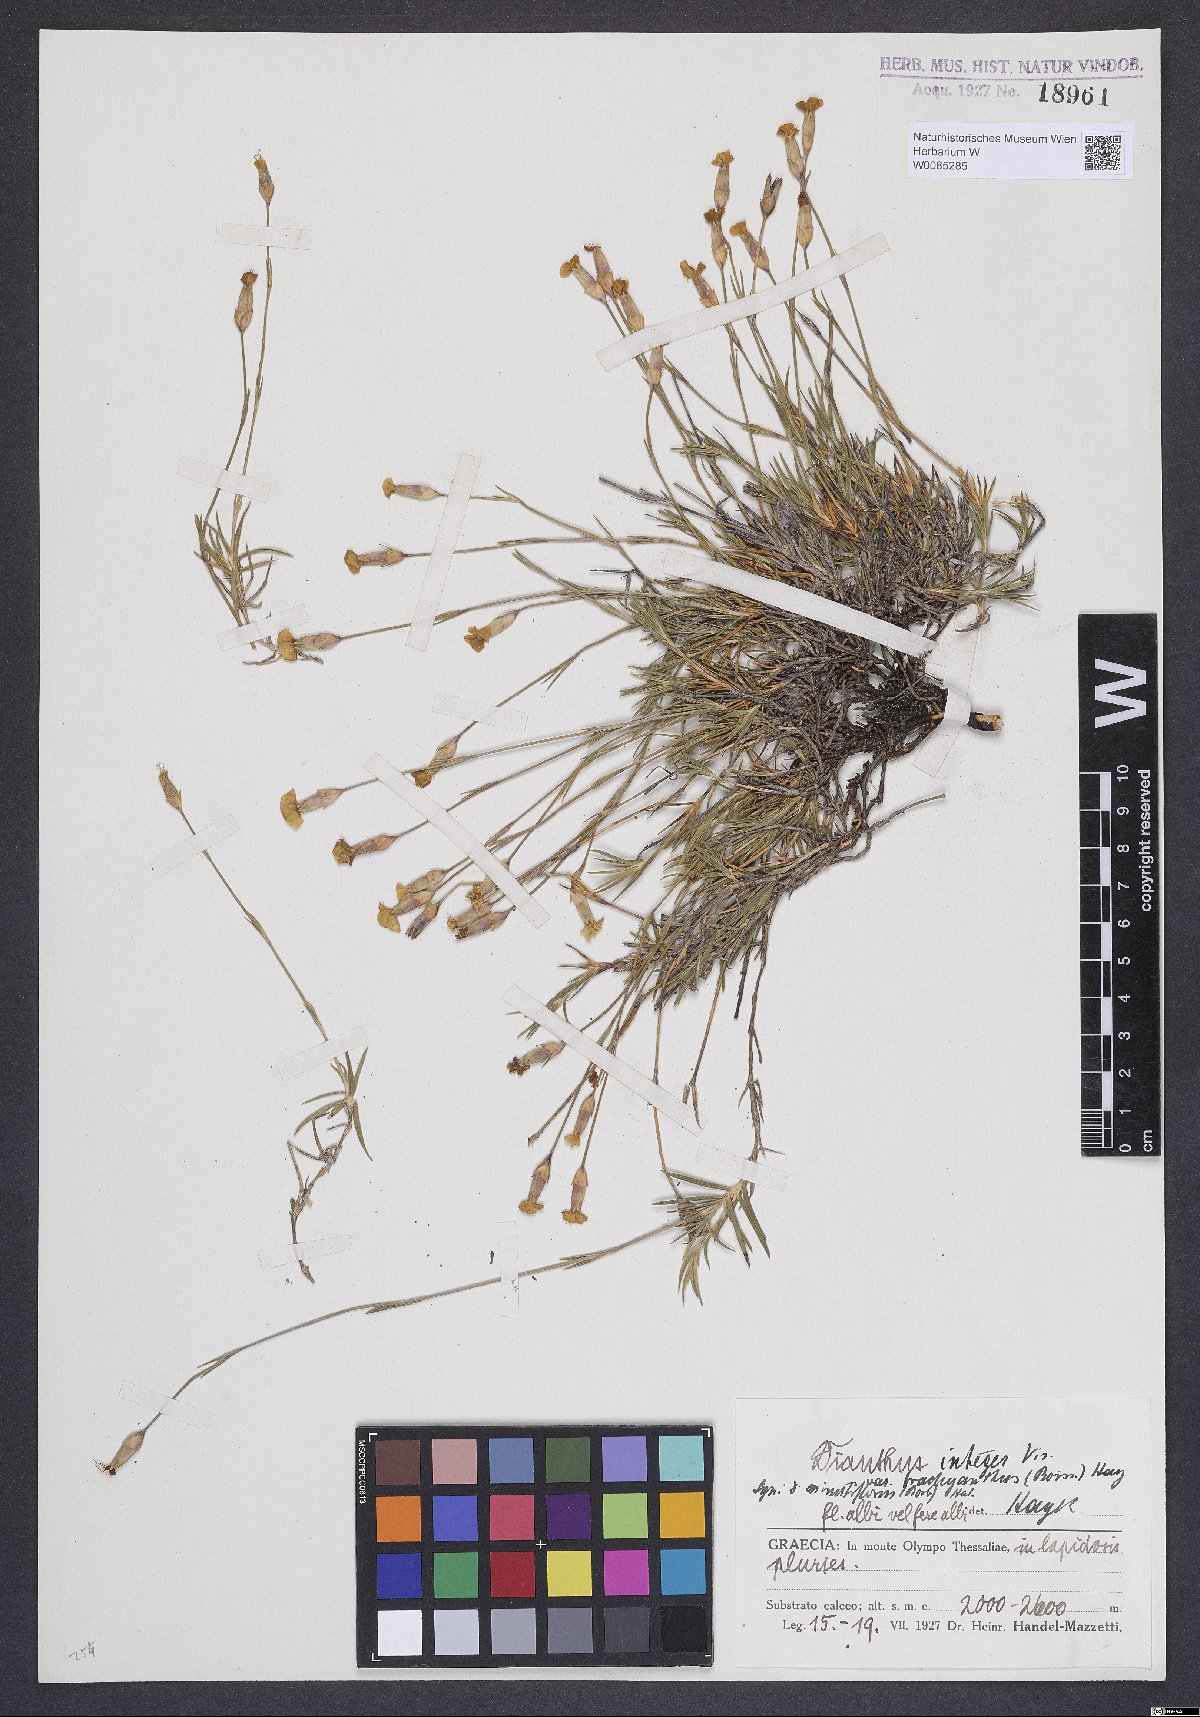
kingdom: Plantae
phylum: Tracheophyta
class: Magnoliopsida
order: Caryophyllales
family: Caryophyllaceae
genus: Dianthus
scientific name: Dianthus petraeus
